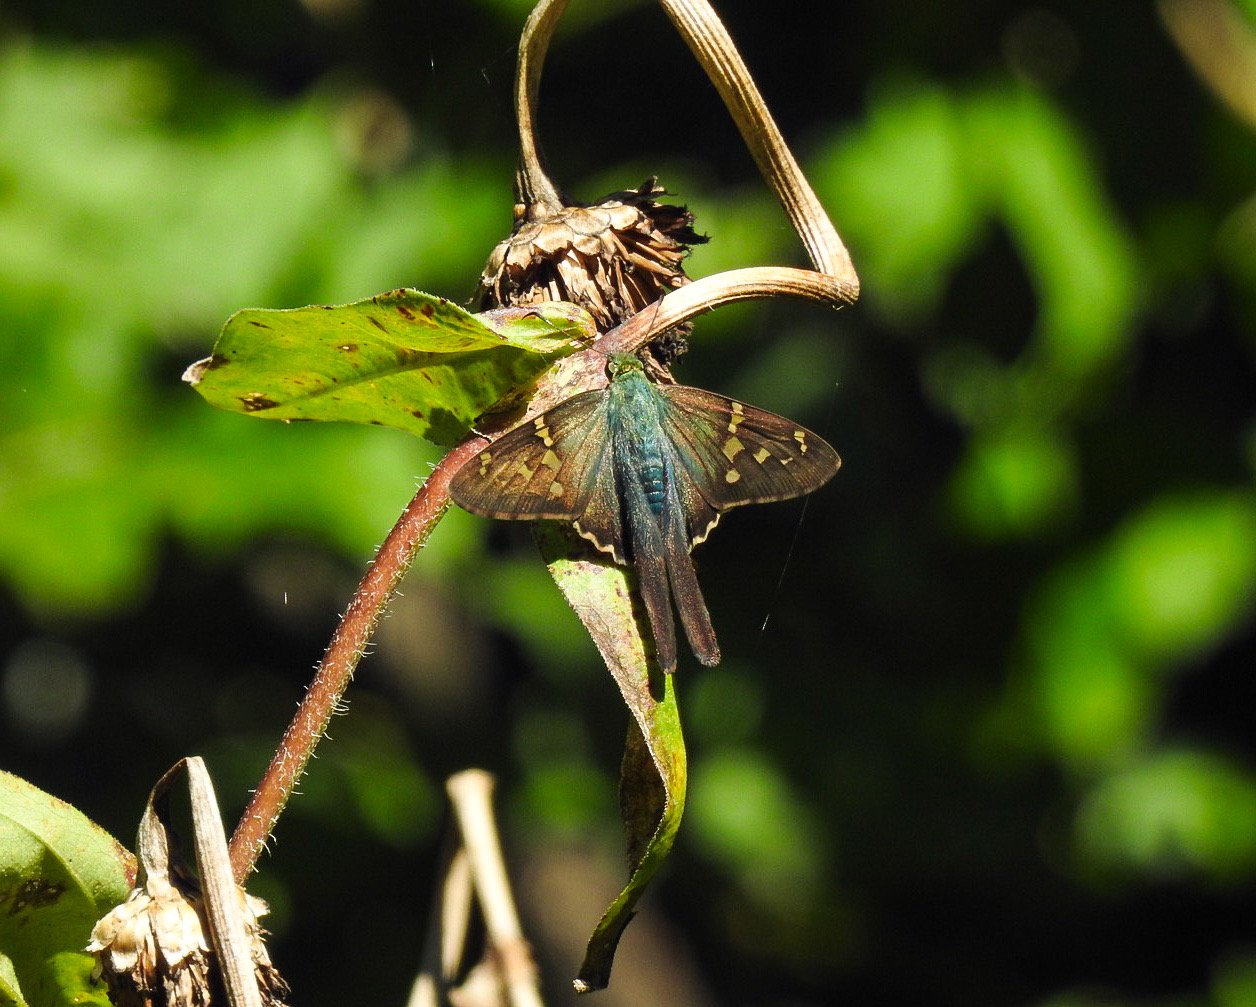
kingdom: Animalia
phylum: Arthropoda
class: Insecta
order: Lepidoptera
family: Hesperiidae
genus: Urbanus
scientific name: Urbanus proteus
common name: Long-tailed Skipper
